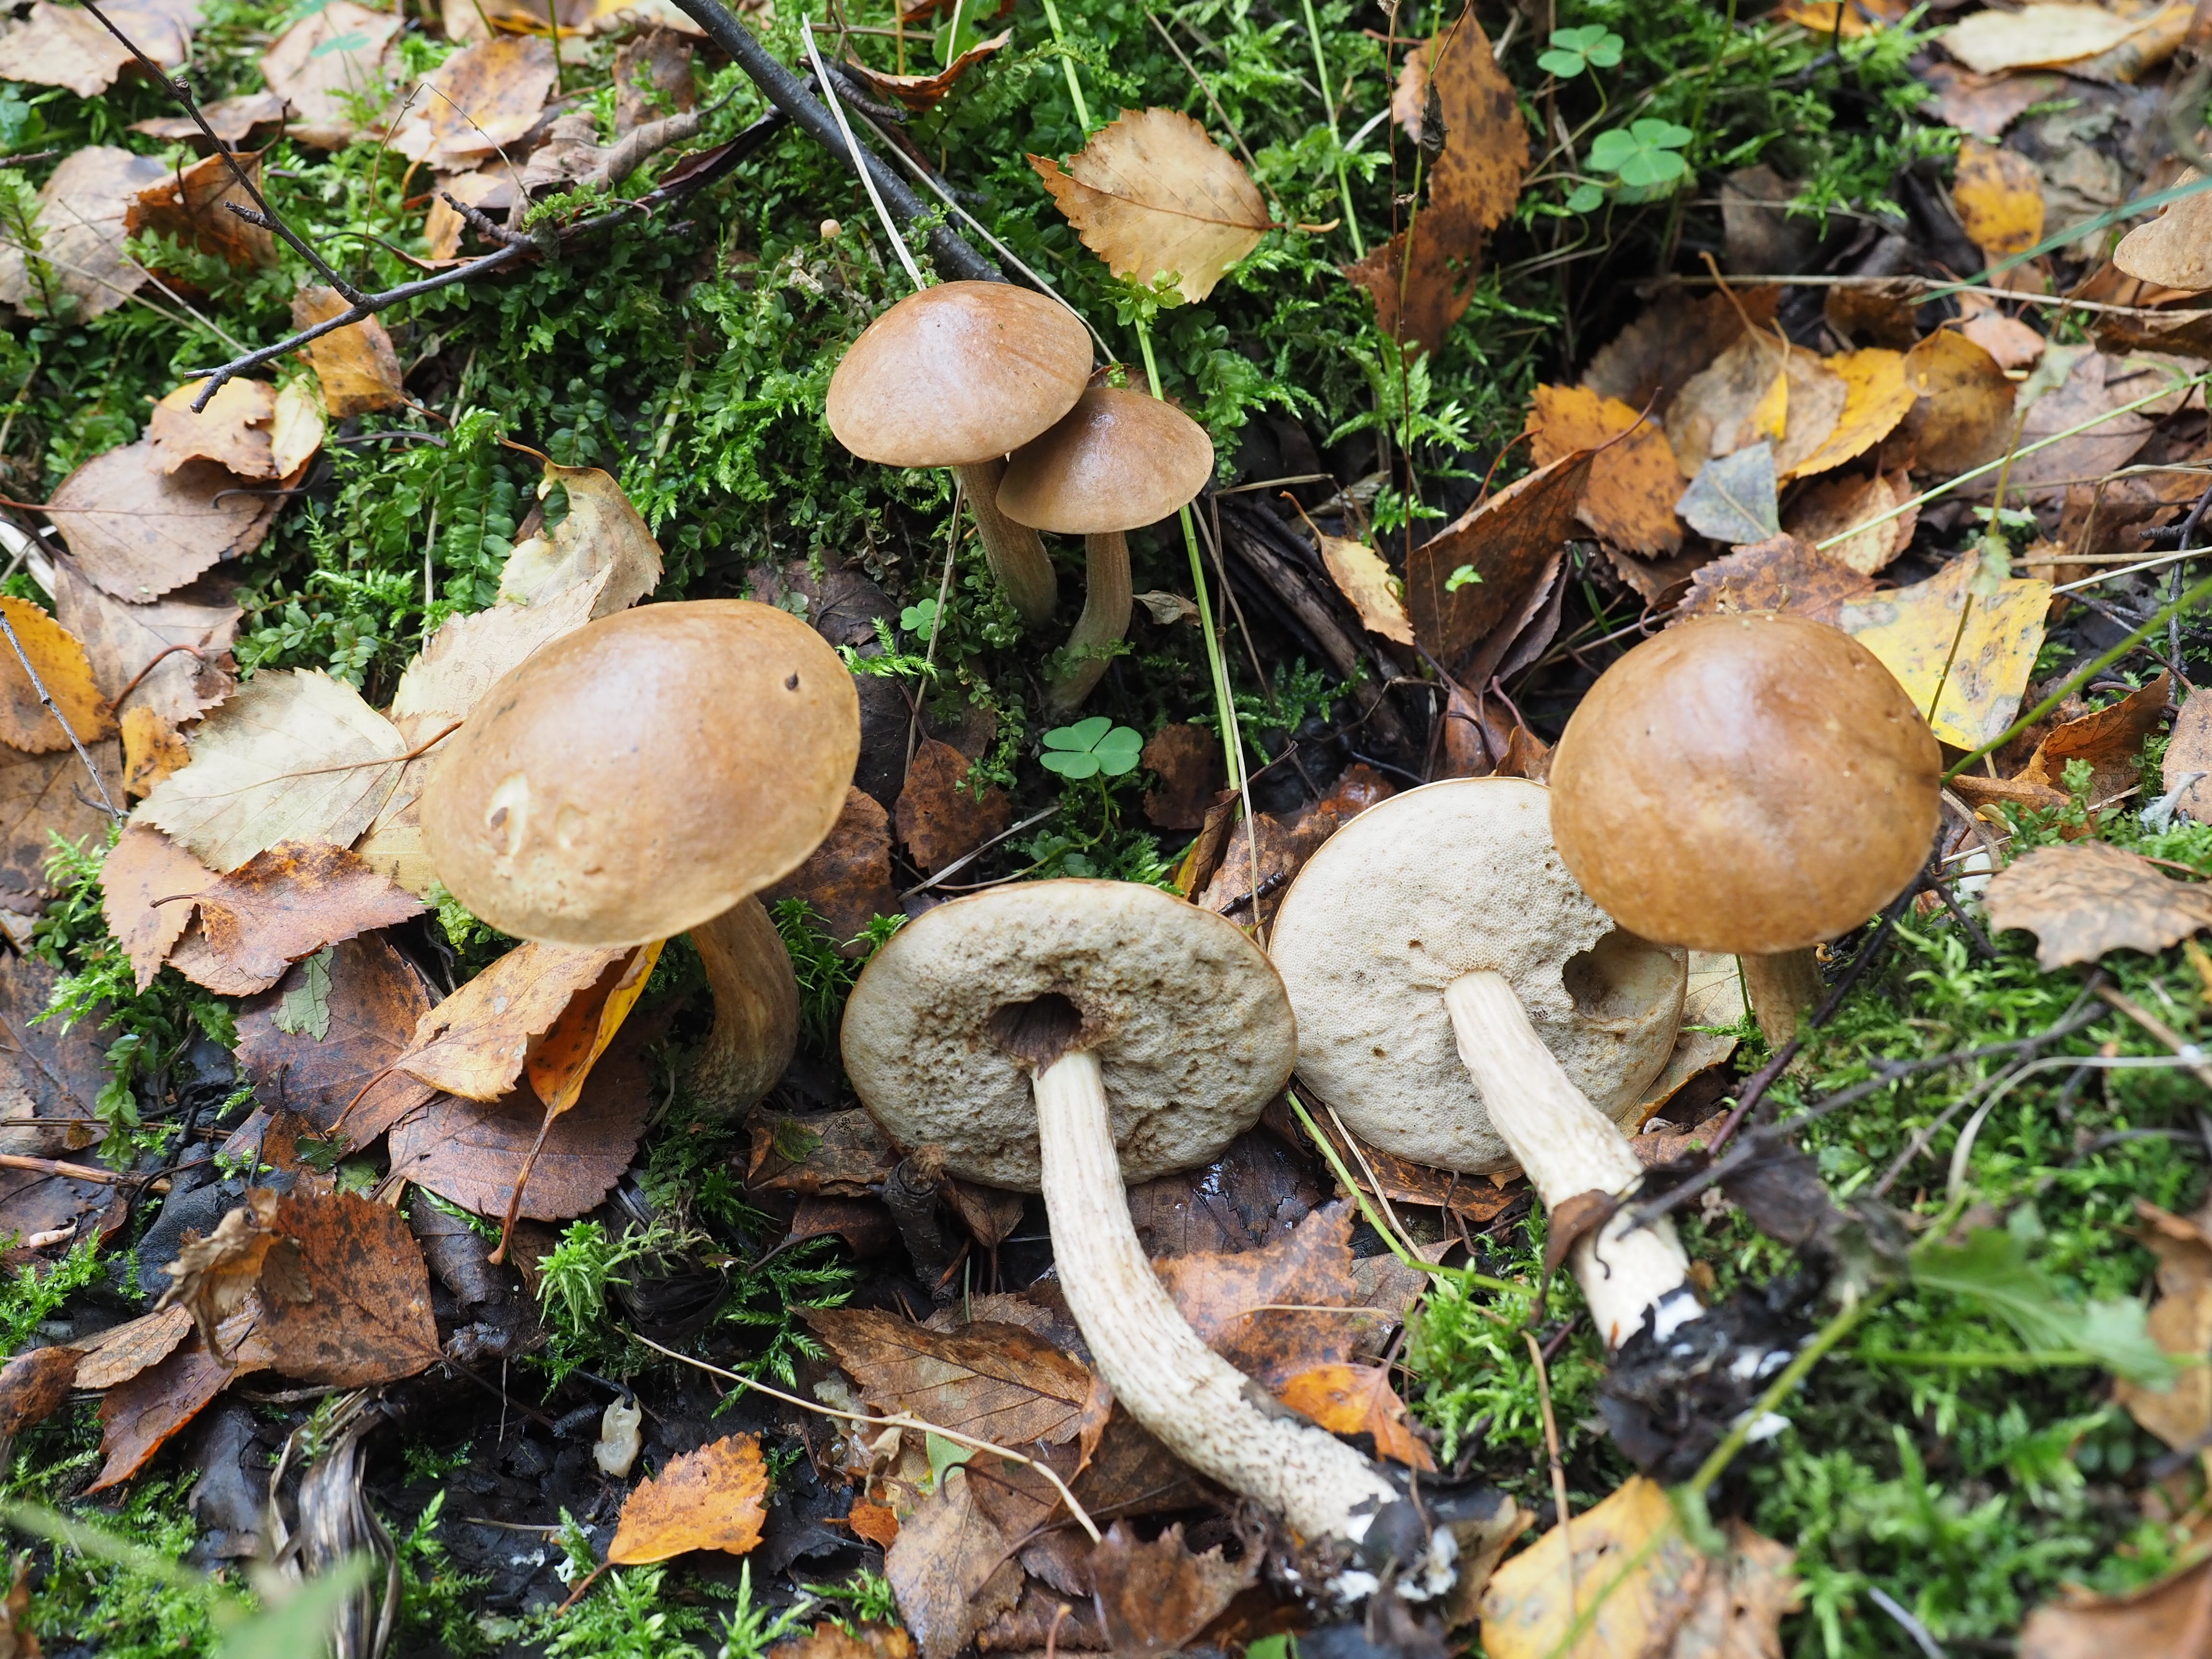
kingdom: Fungi
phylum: Basidiomycota
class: Agaricomycetes
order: Boletales
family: Boletaceae
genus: Leccinum
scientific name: Leccinum scabrum
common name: Blushing bolete
